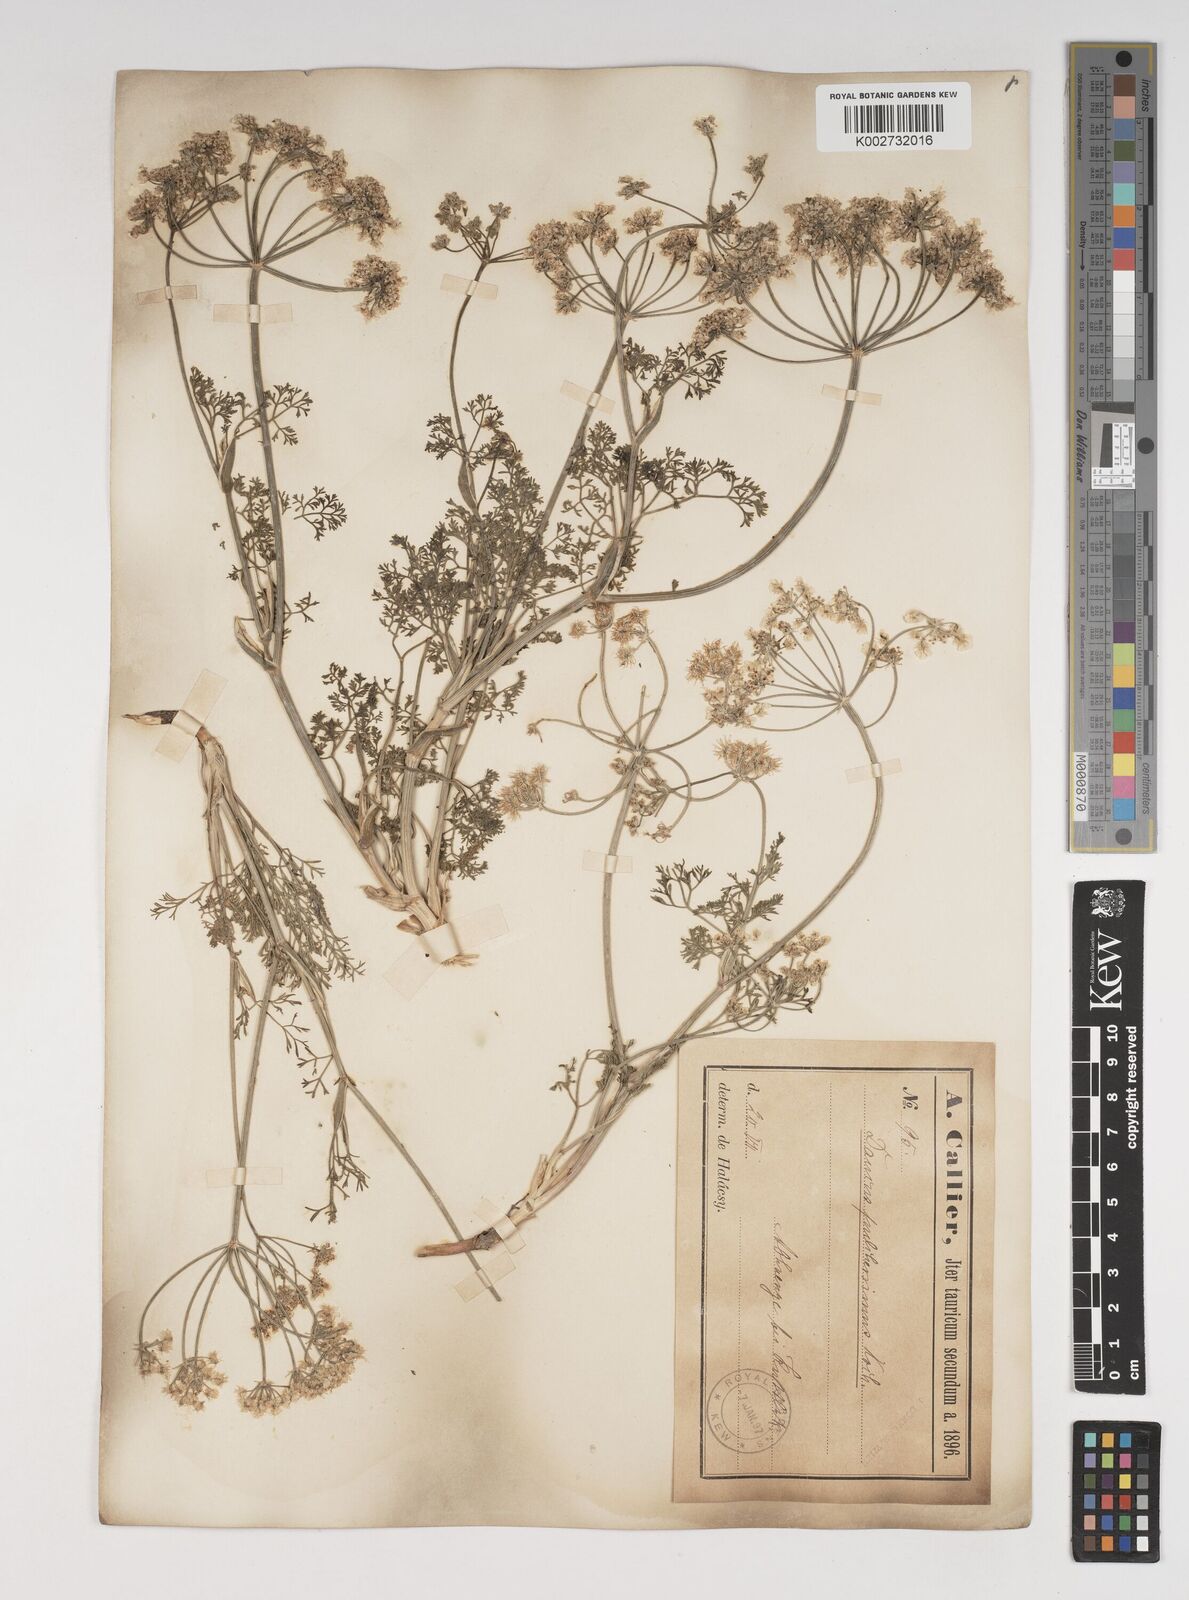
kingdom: Plantae
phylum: Tracheophyta
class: Magnoliopsida
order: Apiales
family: Apiaceae
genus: Astrodaucus
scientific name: Astrodaucus
